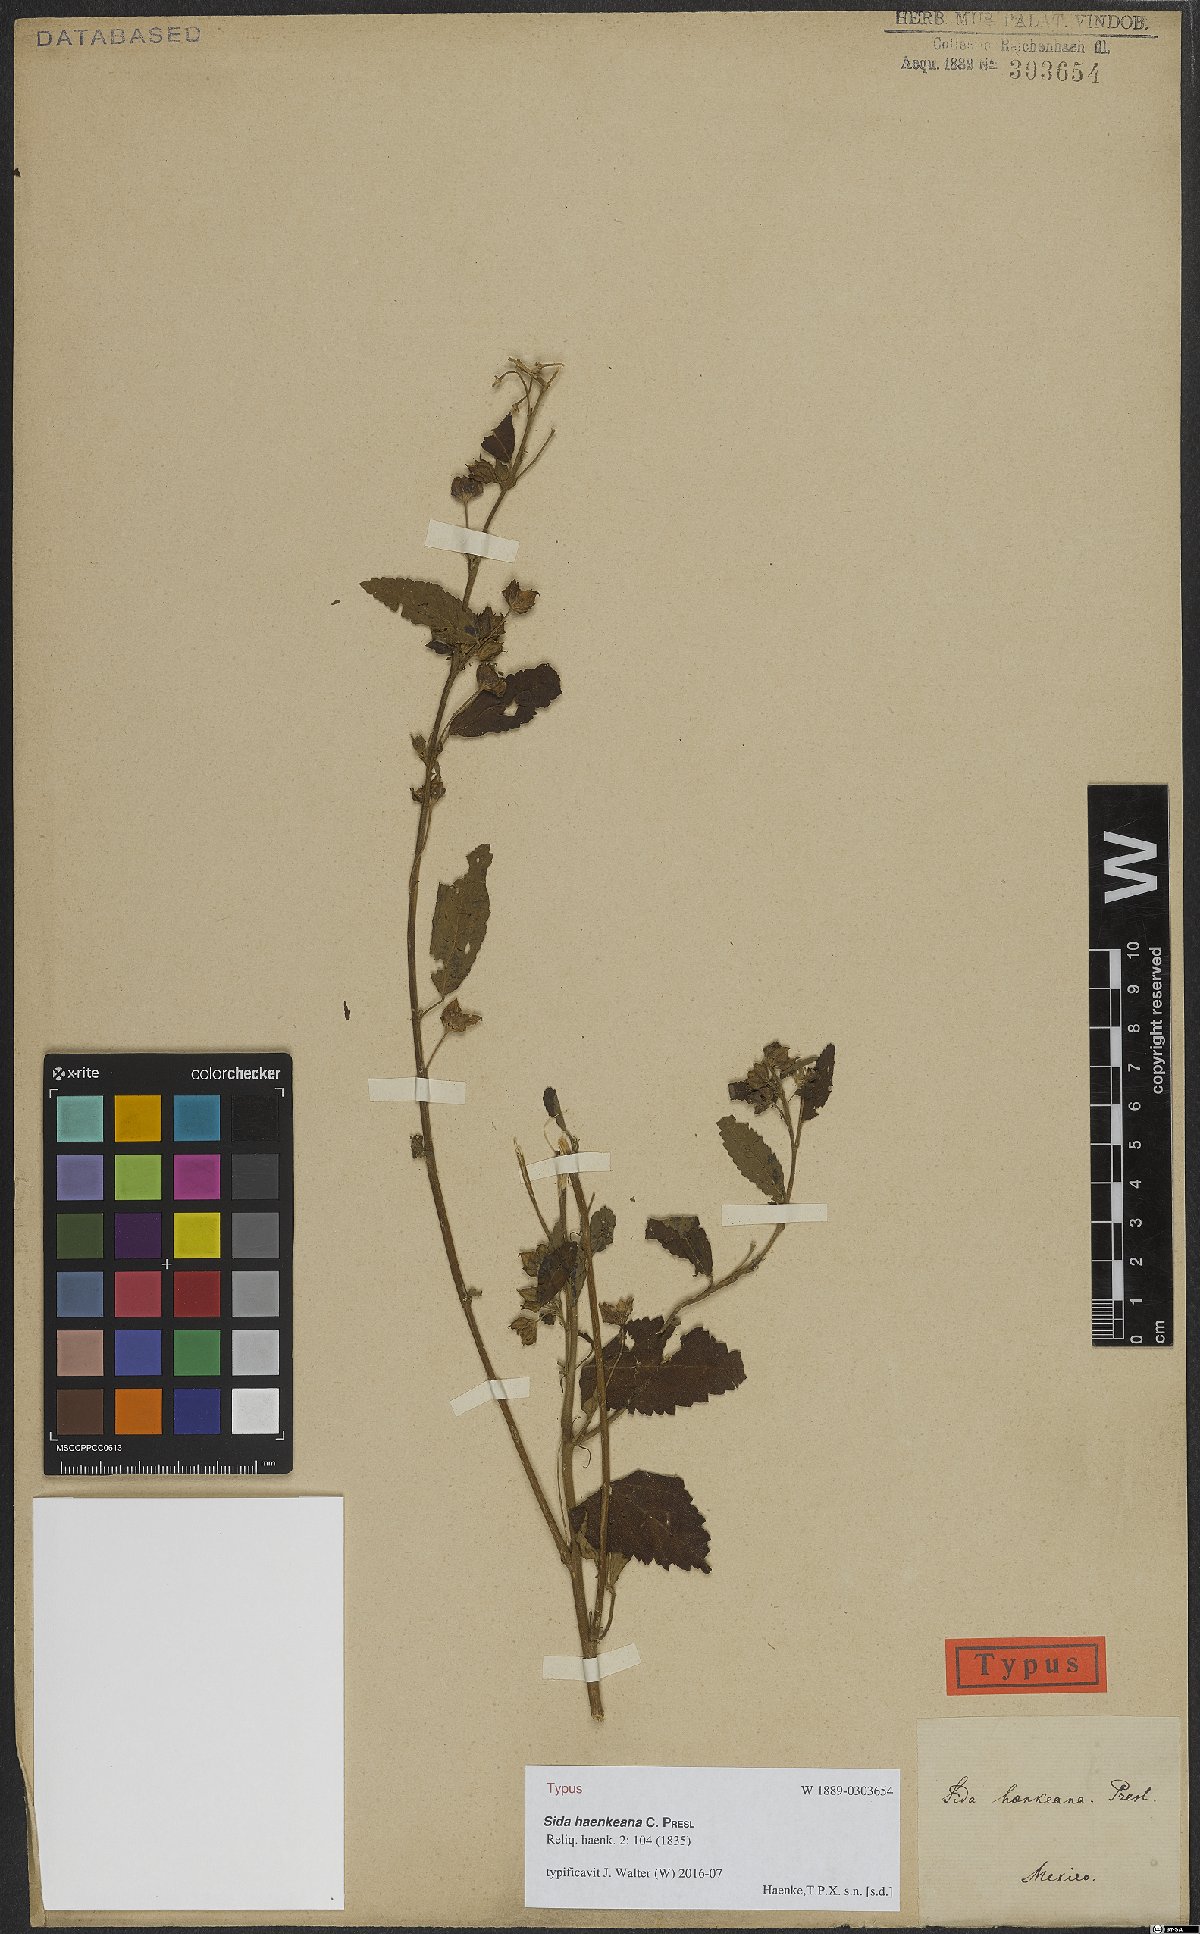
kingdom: Plantae
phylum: Tracheophyta
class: Magnoliopsida
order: Malvales
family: Malvaceae
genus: Sida
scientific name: Sida haenkeana
